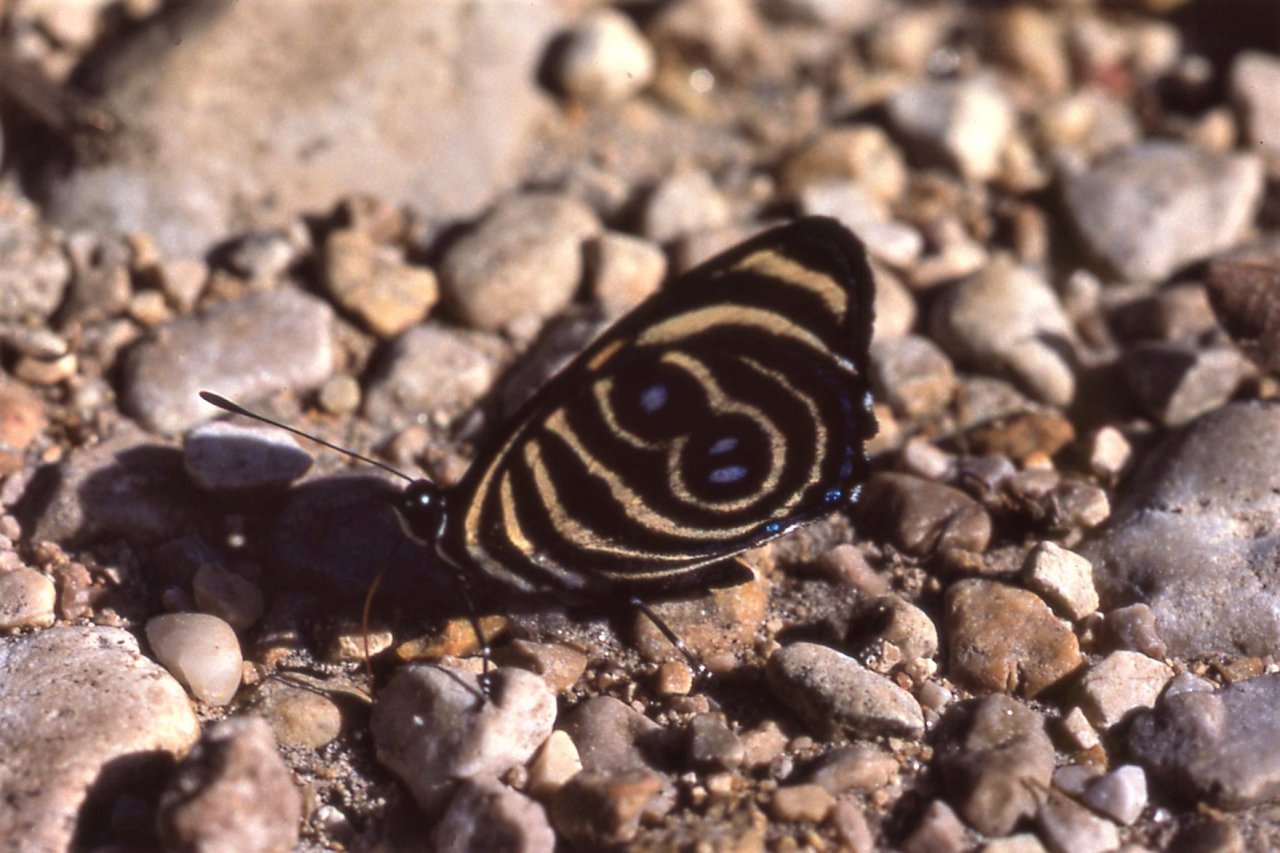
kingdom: Animalia
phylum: Arthropoda
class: Insecta
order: Lepidoptera
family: Nymphalidae
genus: Catagramma
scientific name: Catagramma Callicore tolima
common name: Blue-and-orange Eighty-eight
